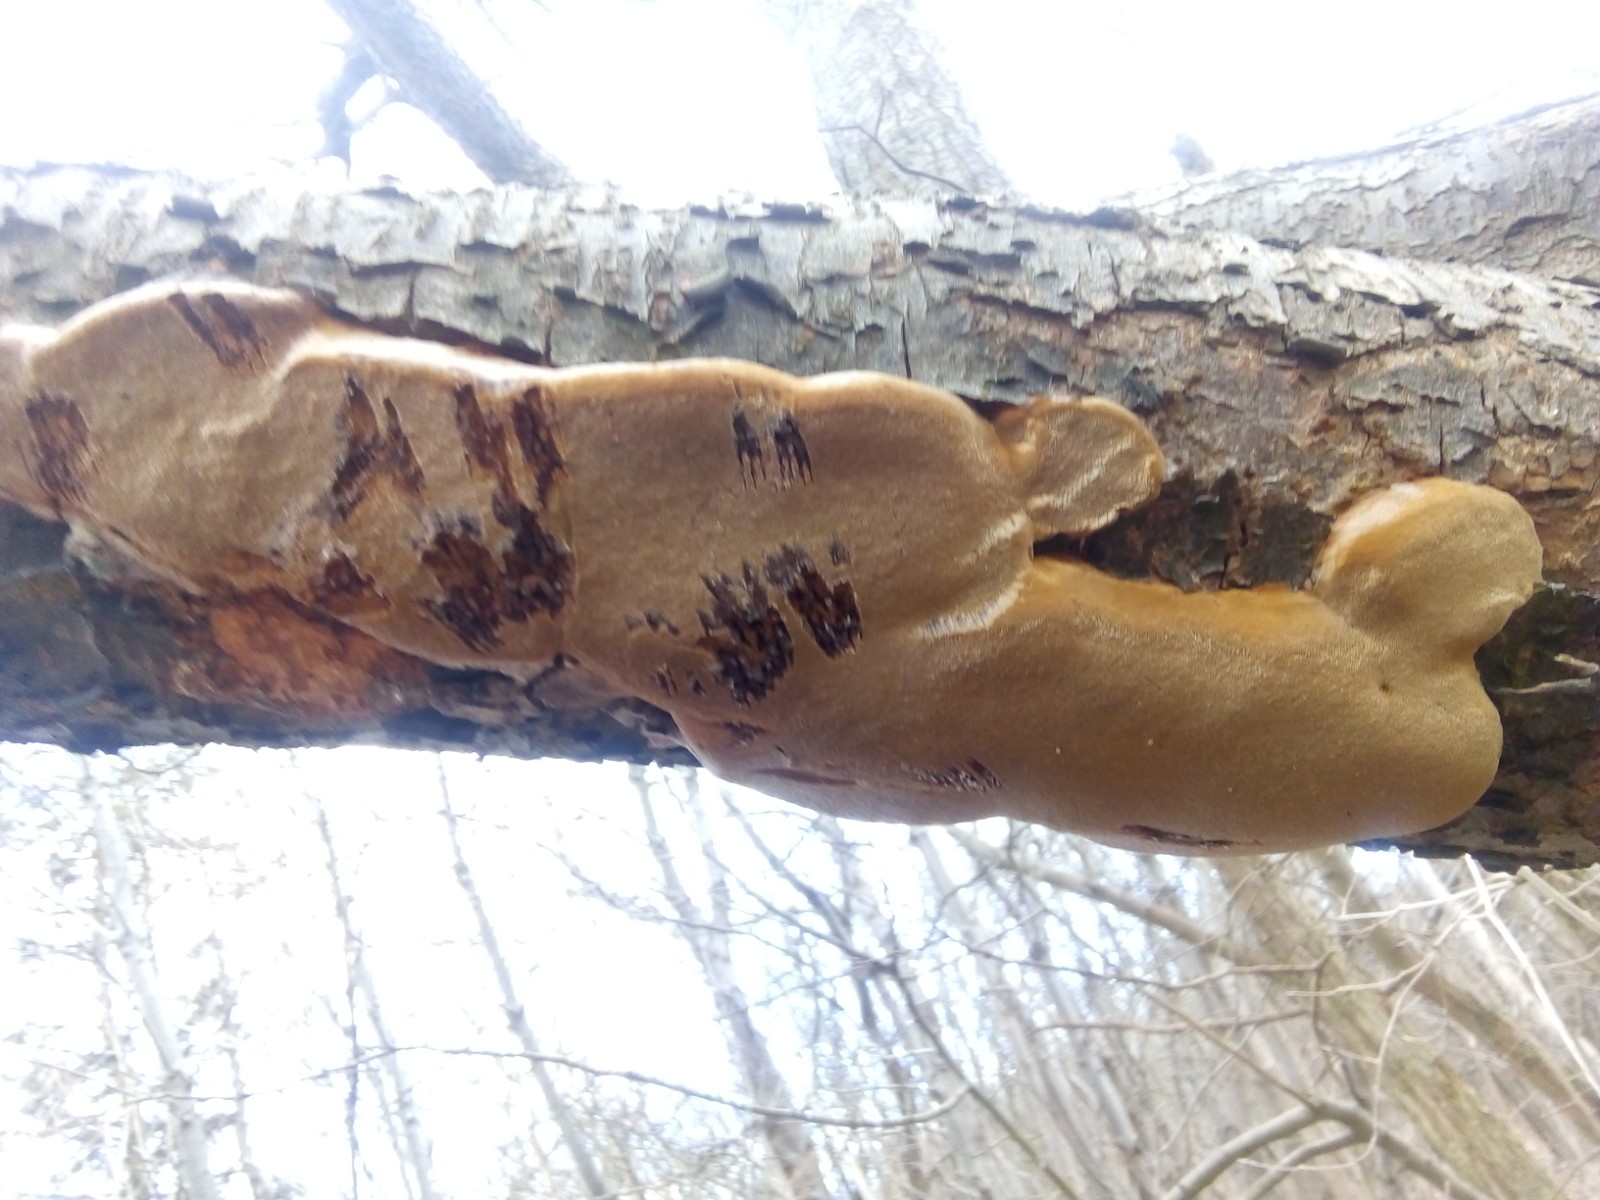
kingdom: Fungi
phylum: Basidiomycota
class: Agaricomycetes
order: Hymenochaetales
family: Hymenochaetaceae
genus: Phellinus
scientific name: Phellinus pomaceus
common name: blomme-ildporesvamp
